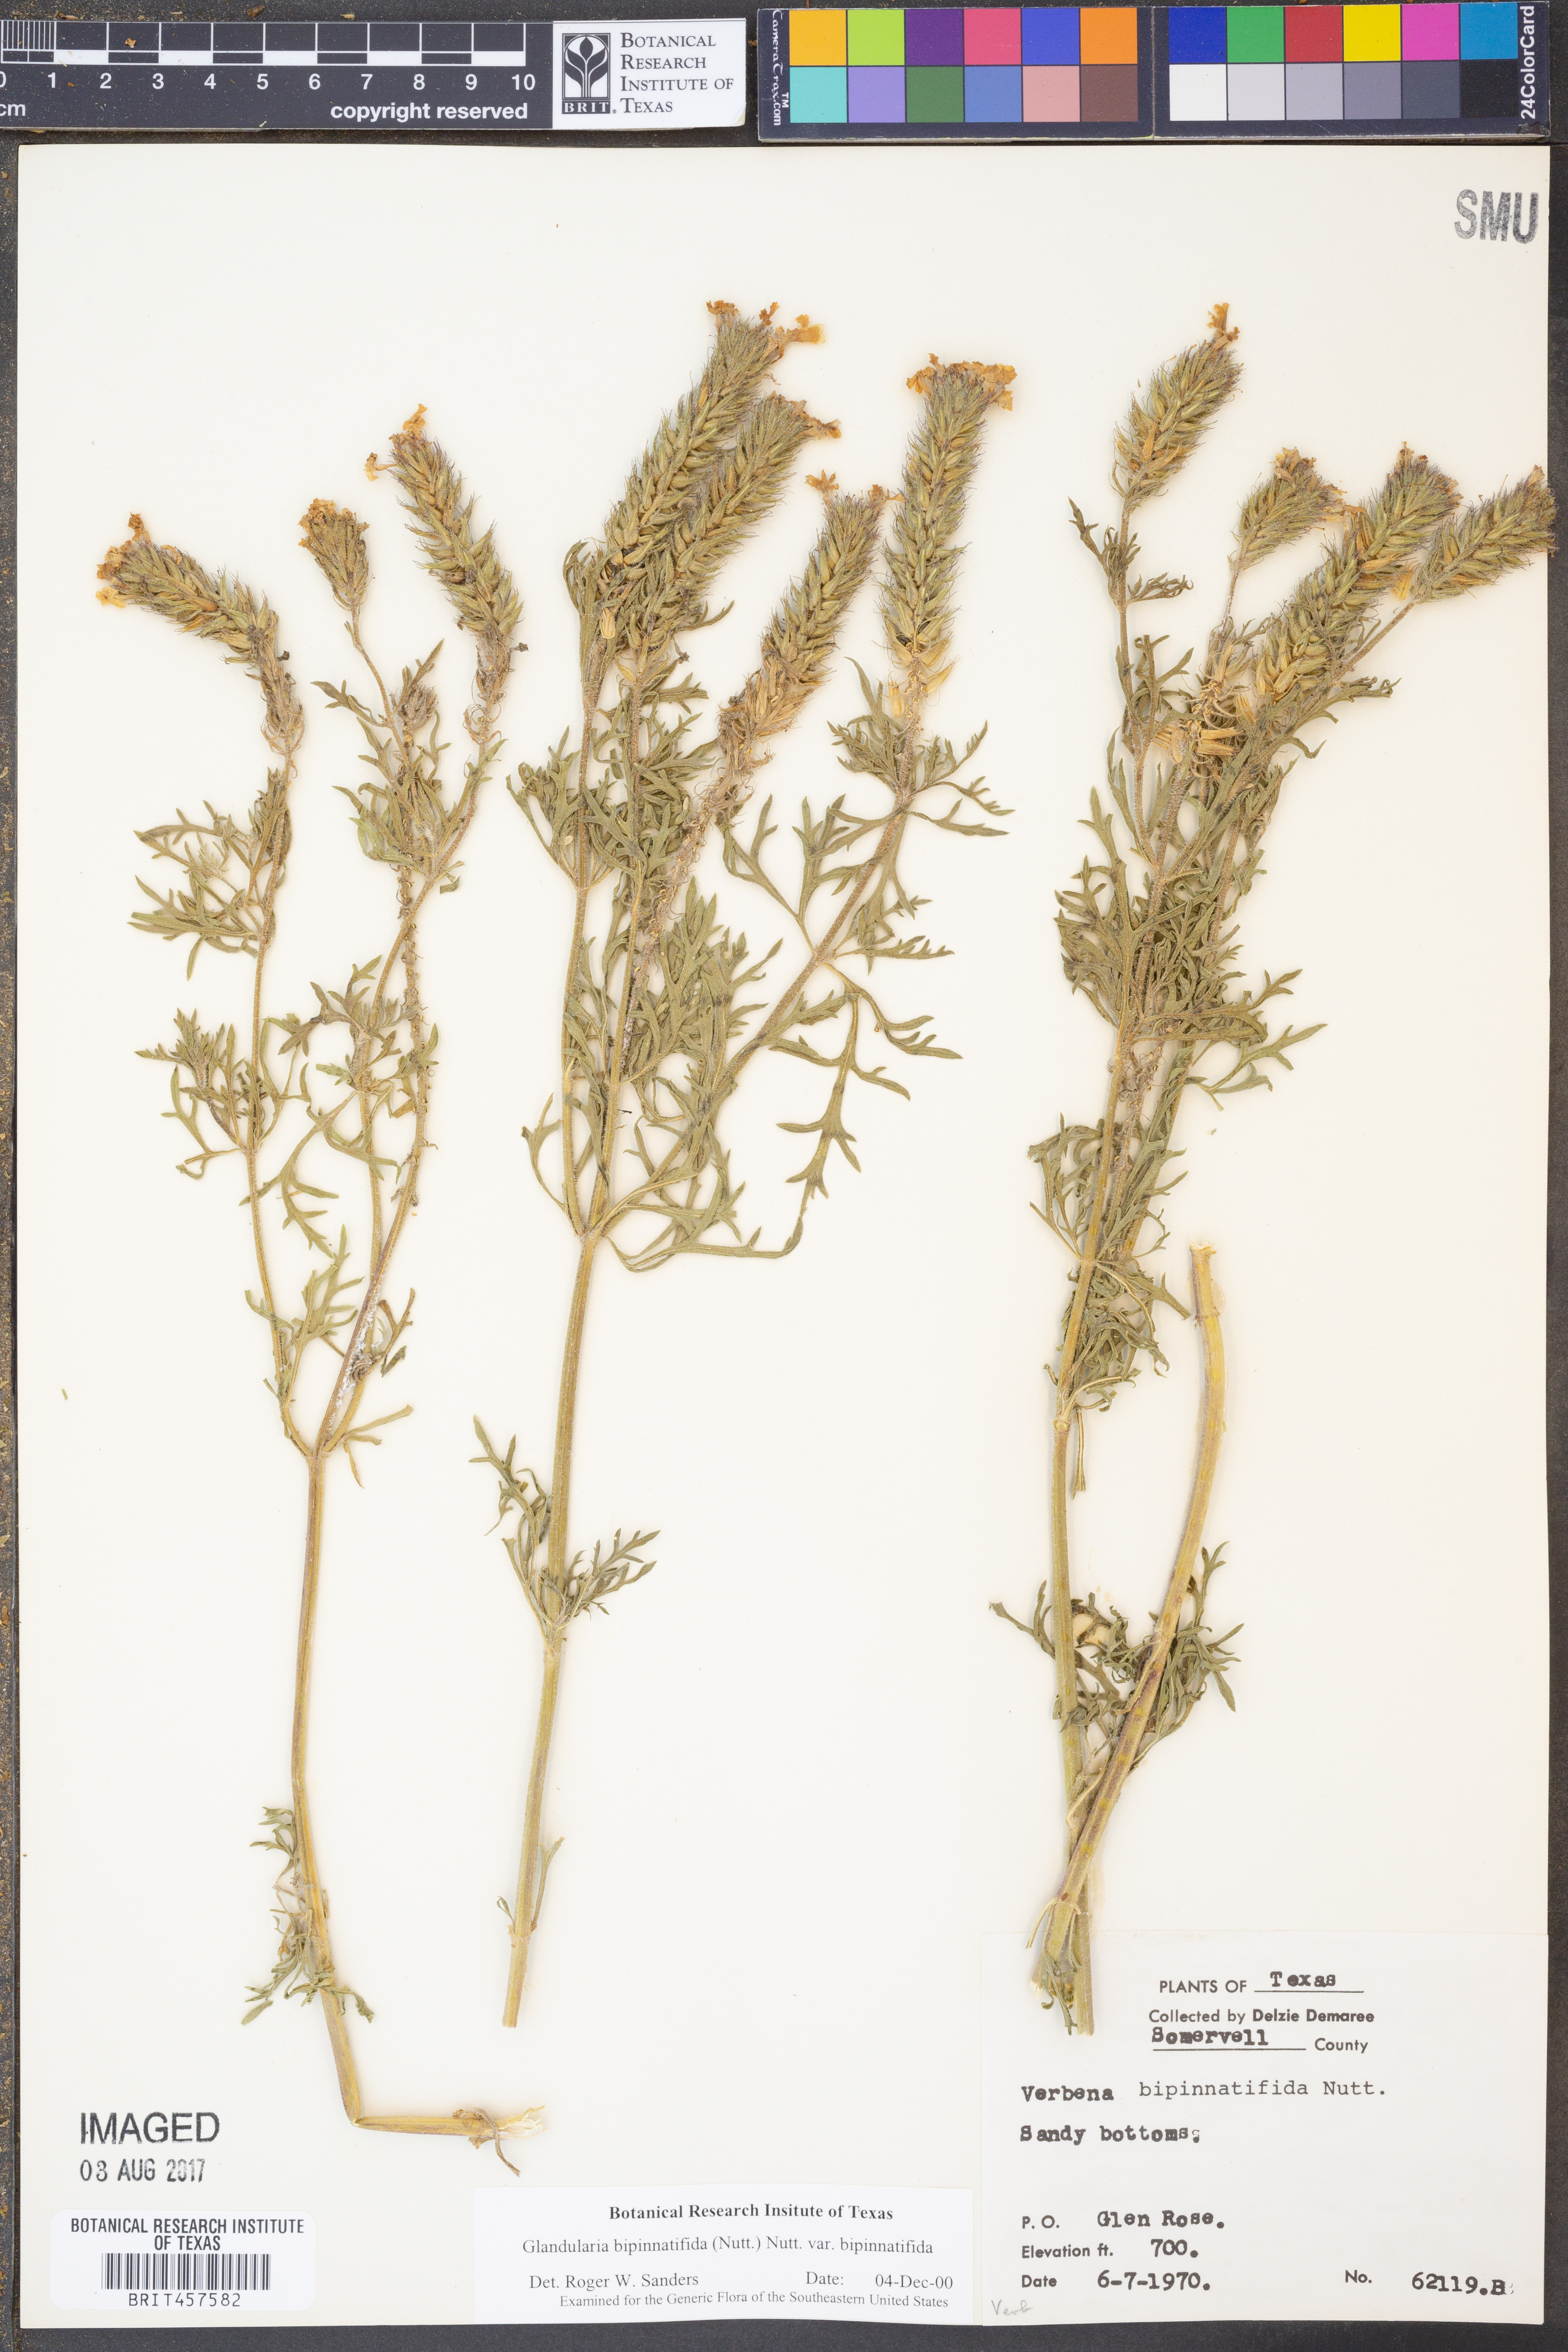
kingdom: Plantae
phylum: Tracheophyta
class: Magnoliopsida
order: Lamiales
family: Verbenaceae
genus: Verbena
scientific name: Verbena bipinnatifida
